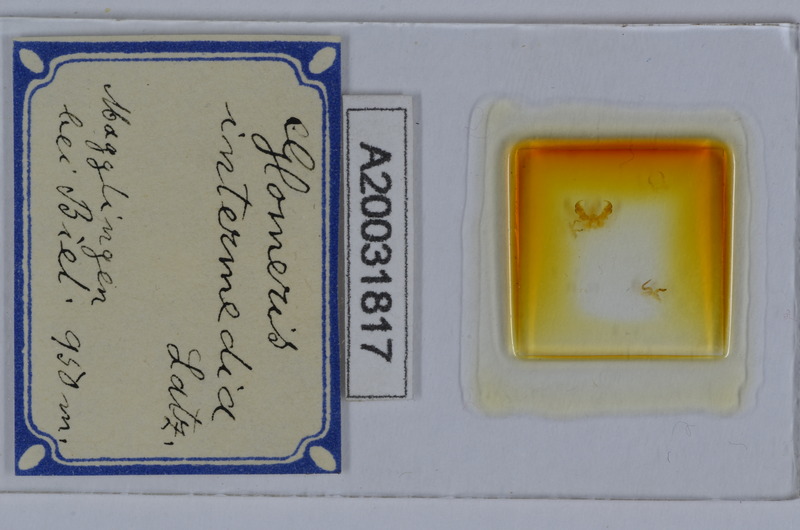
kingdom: Animalia
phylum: Arthropoda
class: Diplopoda
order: Glomerida
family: Glomeridae
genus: Glomeris
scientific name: Glomeris intermedia
